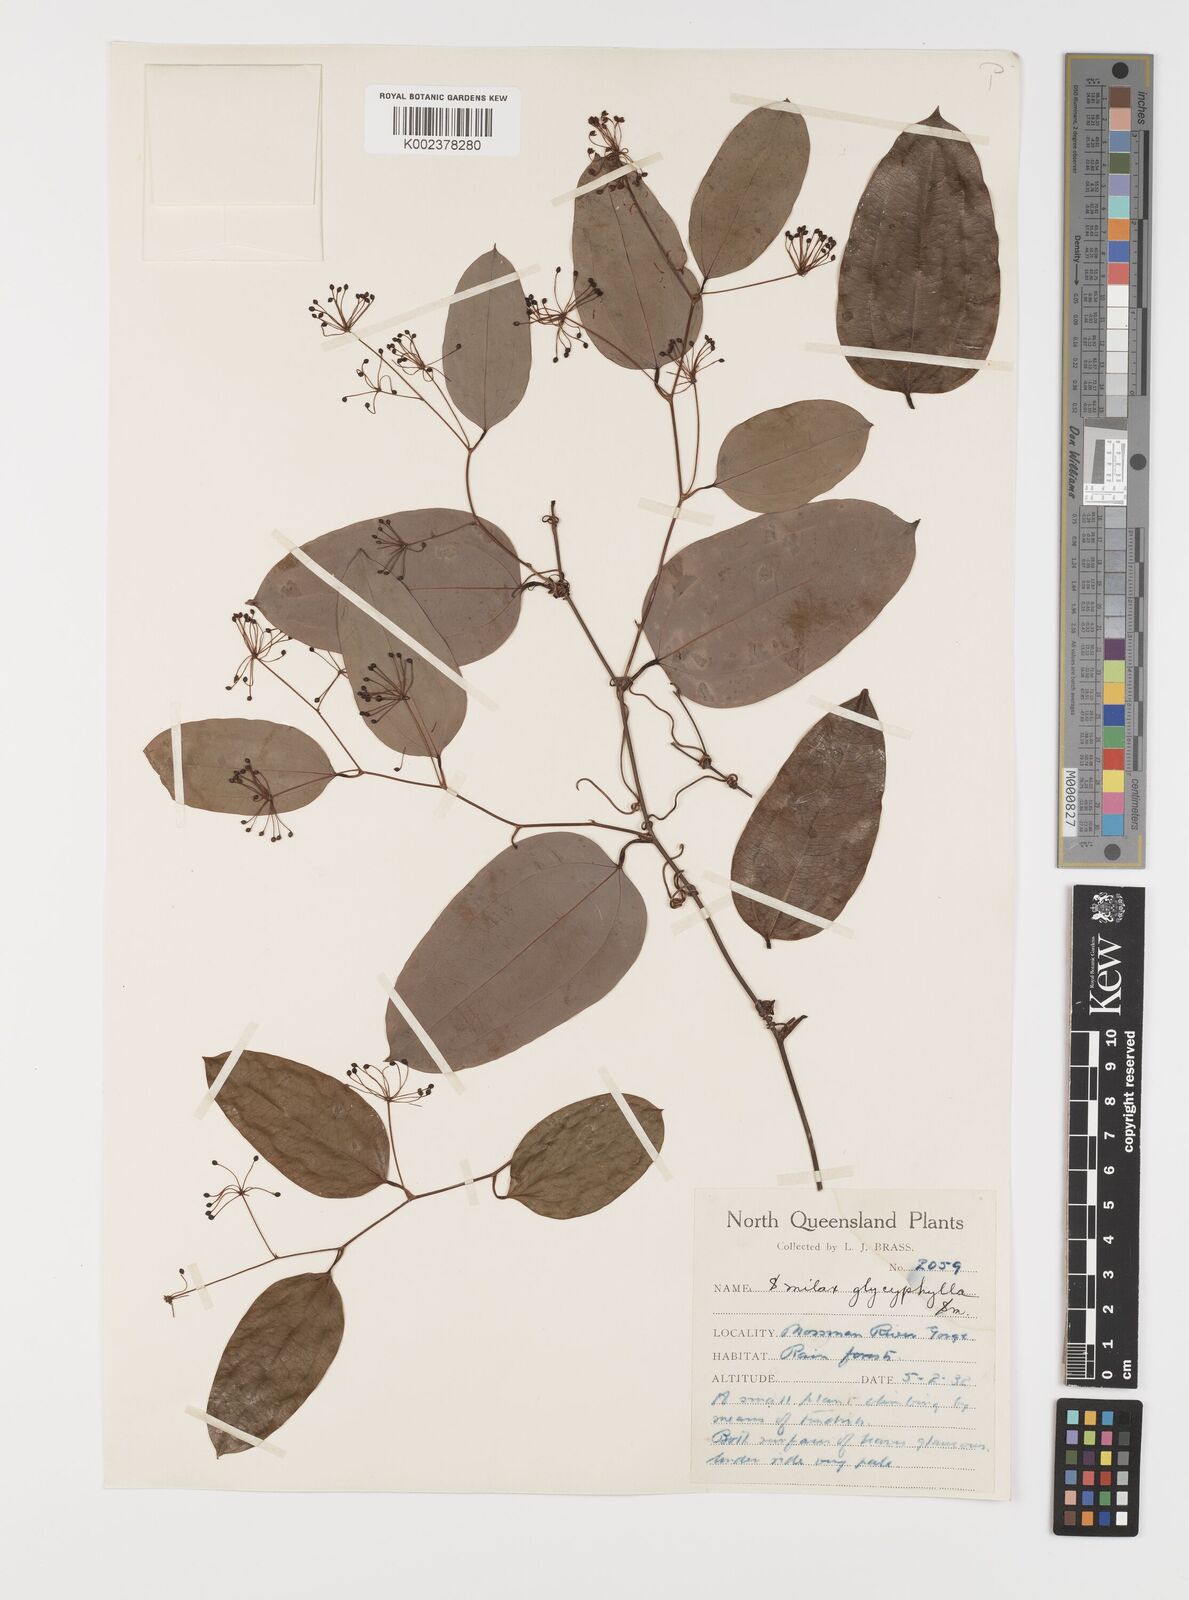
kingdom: Plantae
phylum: Tracheophyta
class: Liliopsida
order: Liliales
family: Smilacaceae
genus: Smilax
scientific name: Smilax leucophylla
